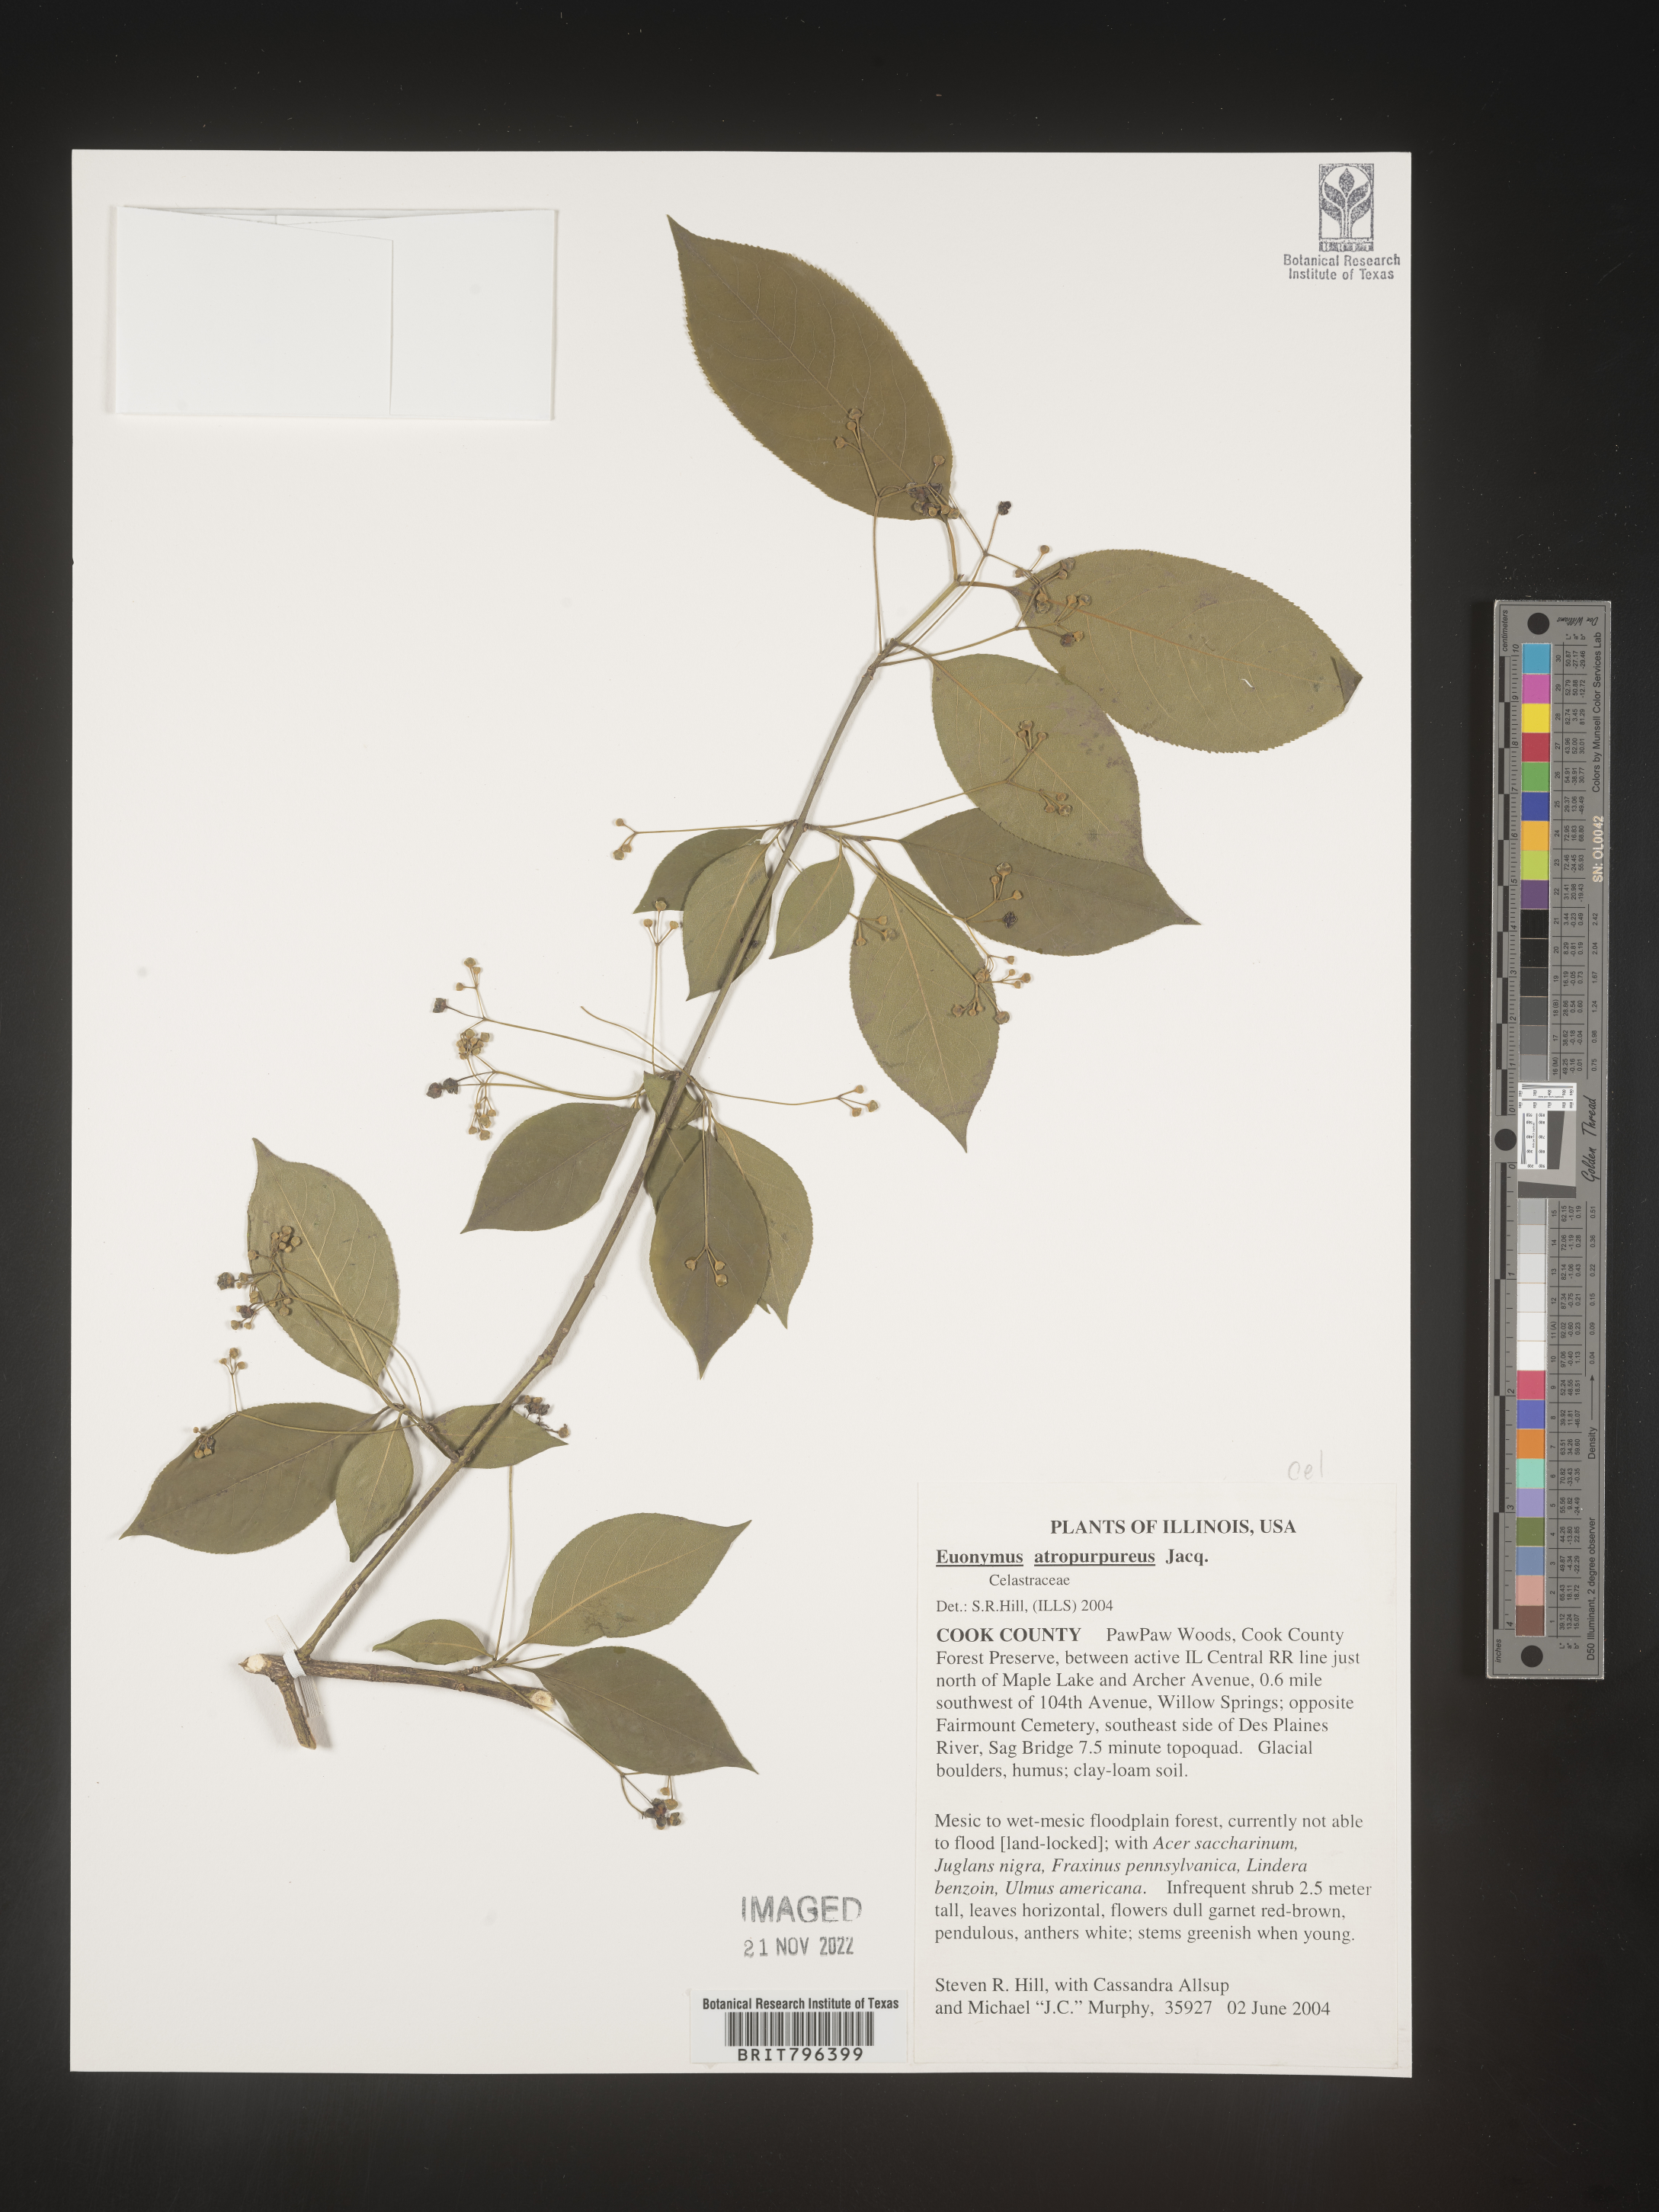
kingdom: Plantae
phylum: Tracheophyta
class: Magnoliopsida
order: Celastrales
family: Celastraceae
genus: Euonymus
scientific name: Euonymus atropurpureus
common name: Eastern wahoo
